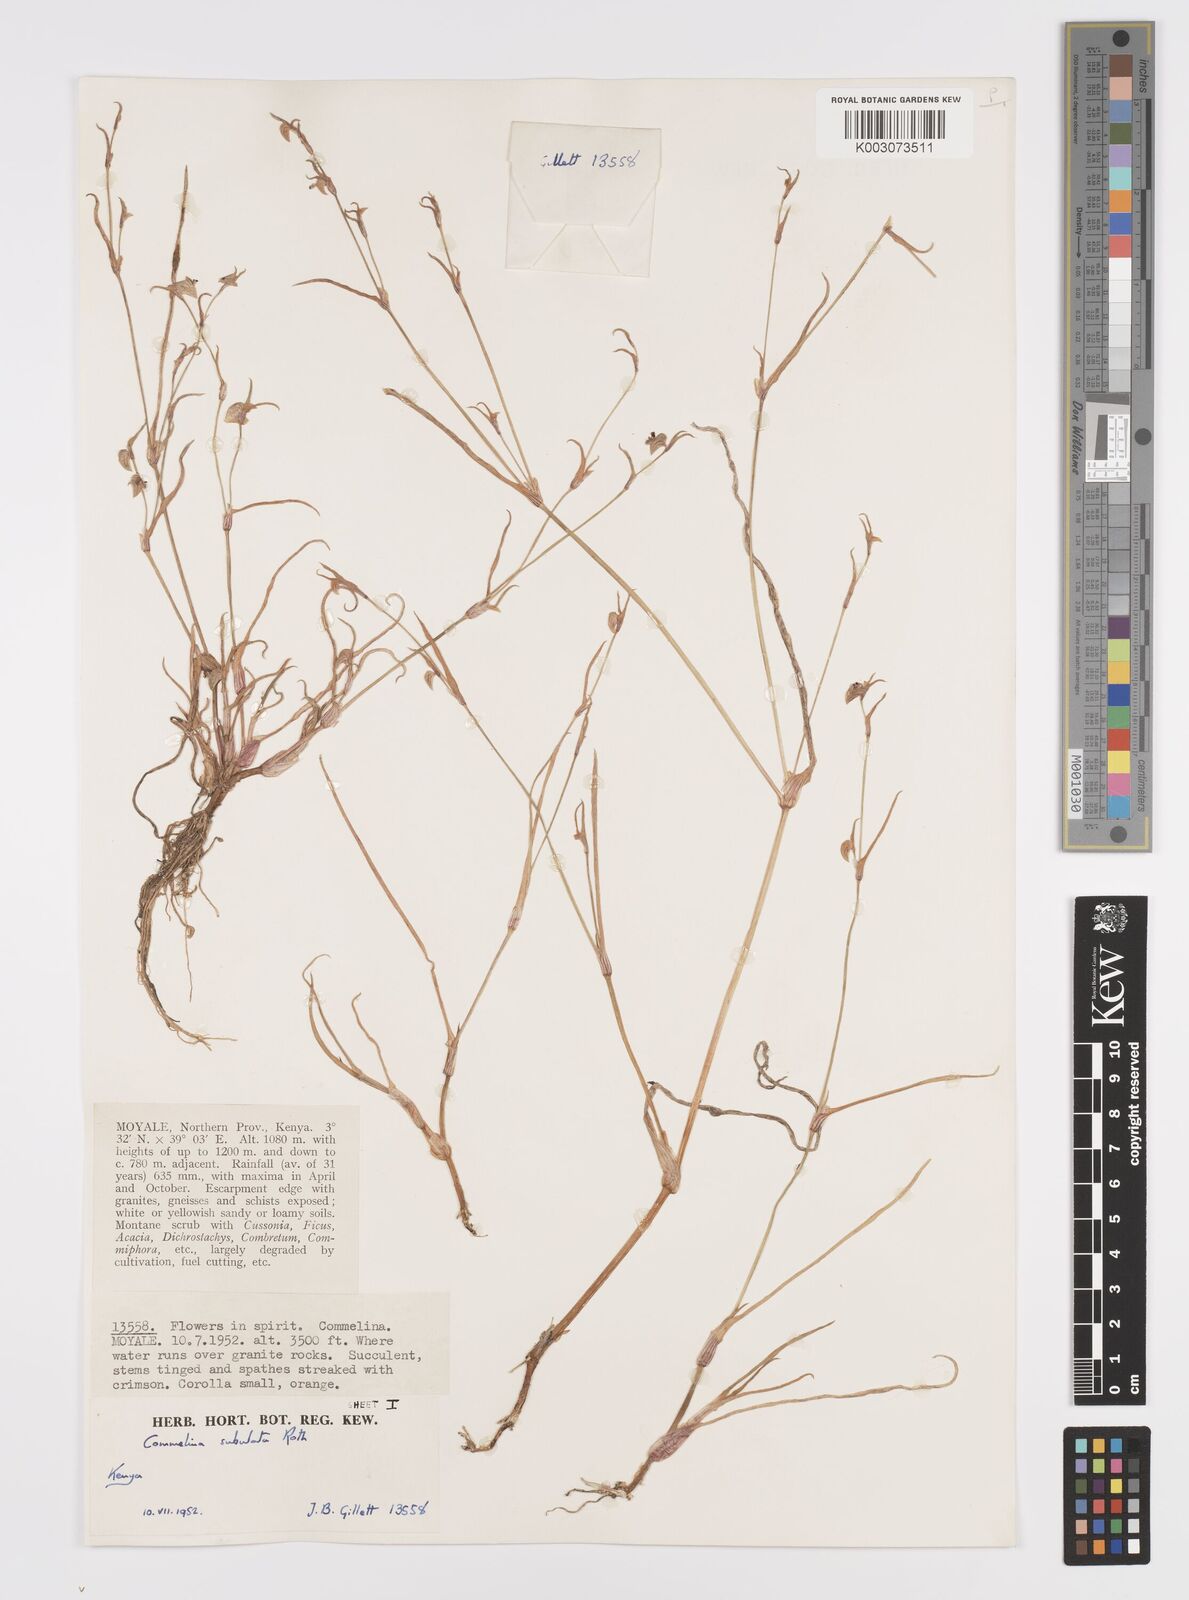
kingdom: Plantae
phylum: Tracheophyta
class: Liliopsida
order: Commelinales
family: Commelinaceae
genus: Commelina
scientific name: Commelina subulata
